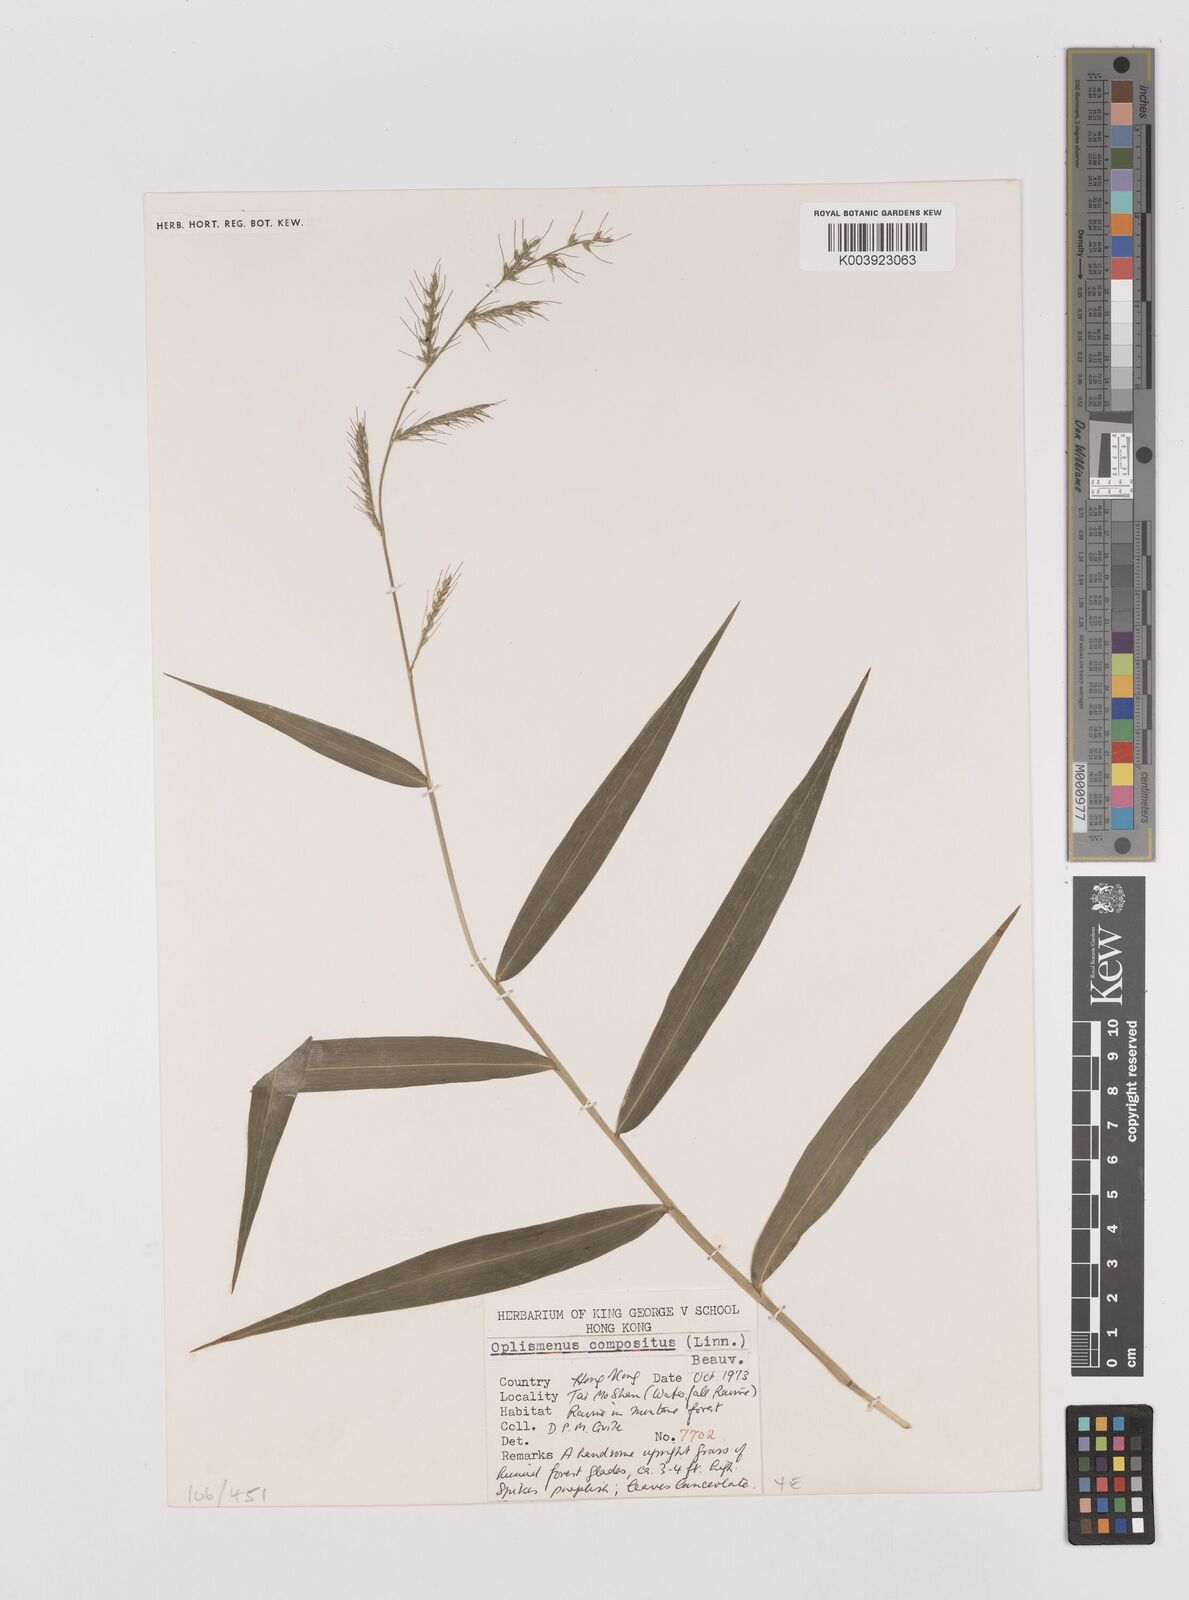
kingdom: Plantae
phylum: Tracheophyta
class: Liliopsida
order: Poales
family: Poaceae
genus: Oplismenus
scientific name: Oplismenus compositus
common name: Running mountain grass
